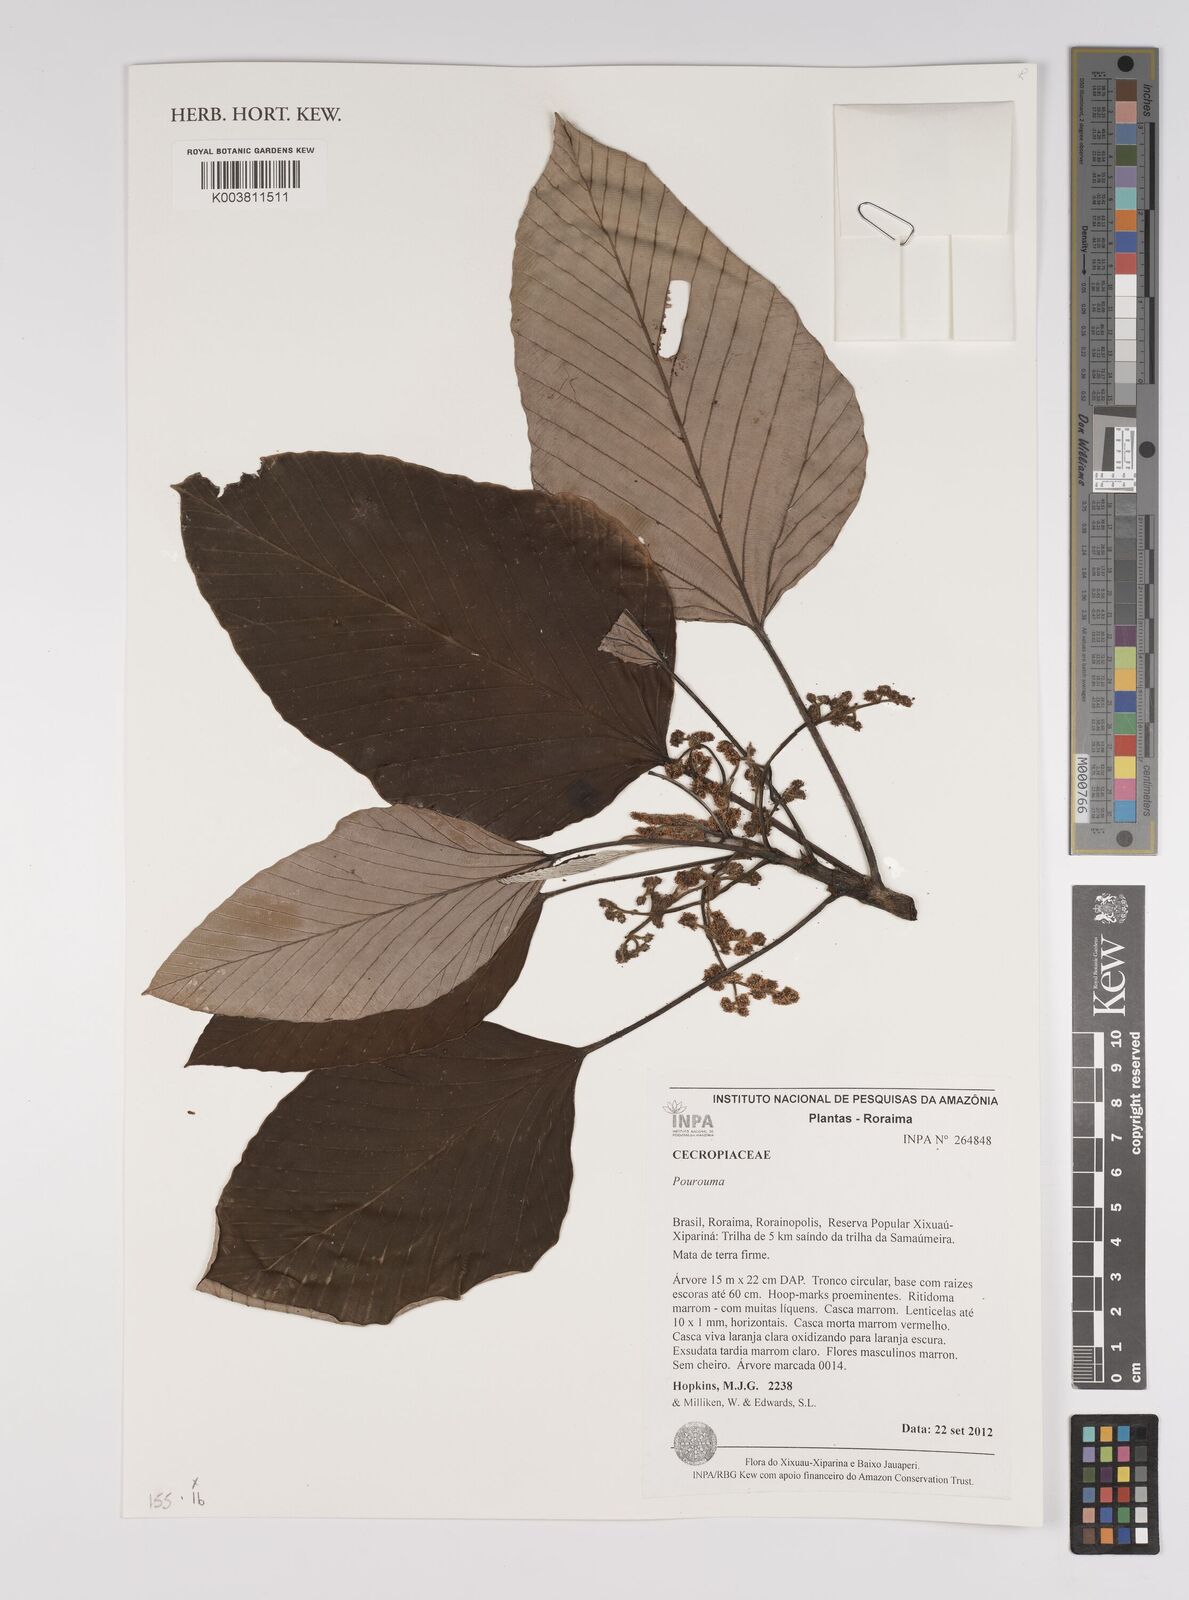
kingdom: Plantae
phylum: Tracheophyta
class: Magnoliopsida
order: Rosales
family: Urticaceae
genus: Pourouma
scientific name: Pourouma
